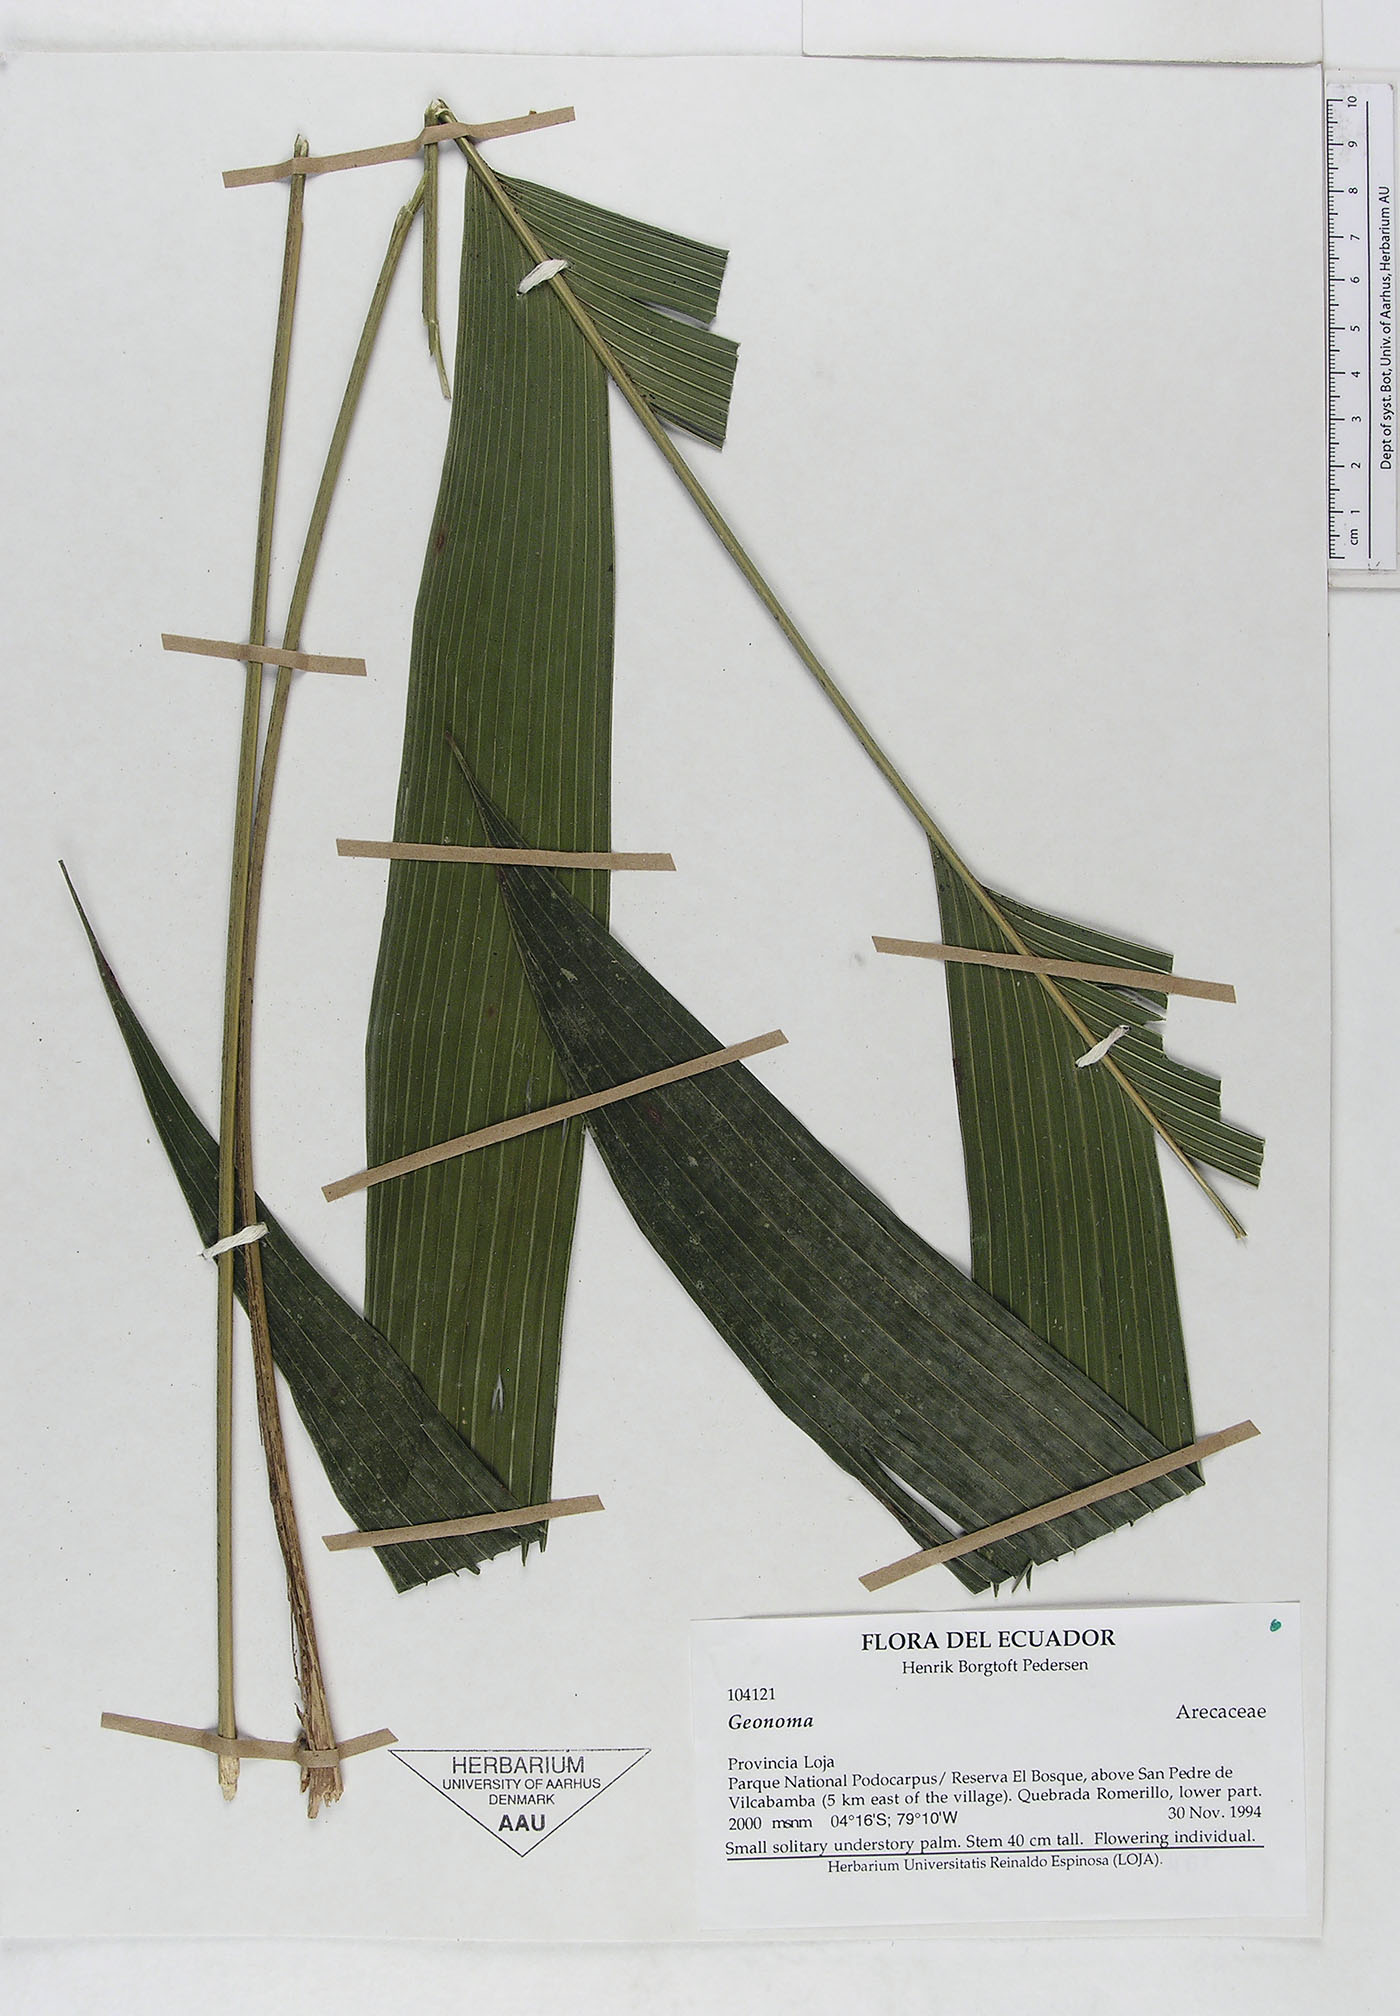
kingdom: Plantae
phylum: Tracheophyta
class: Liliopsida
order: Arecales
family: Arecaceae
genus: Geonoma
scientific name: Geonoma orbignyana
